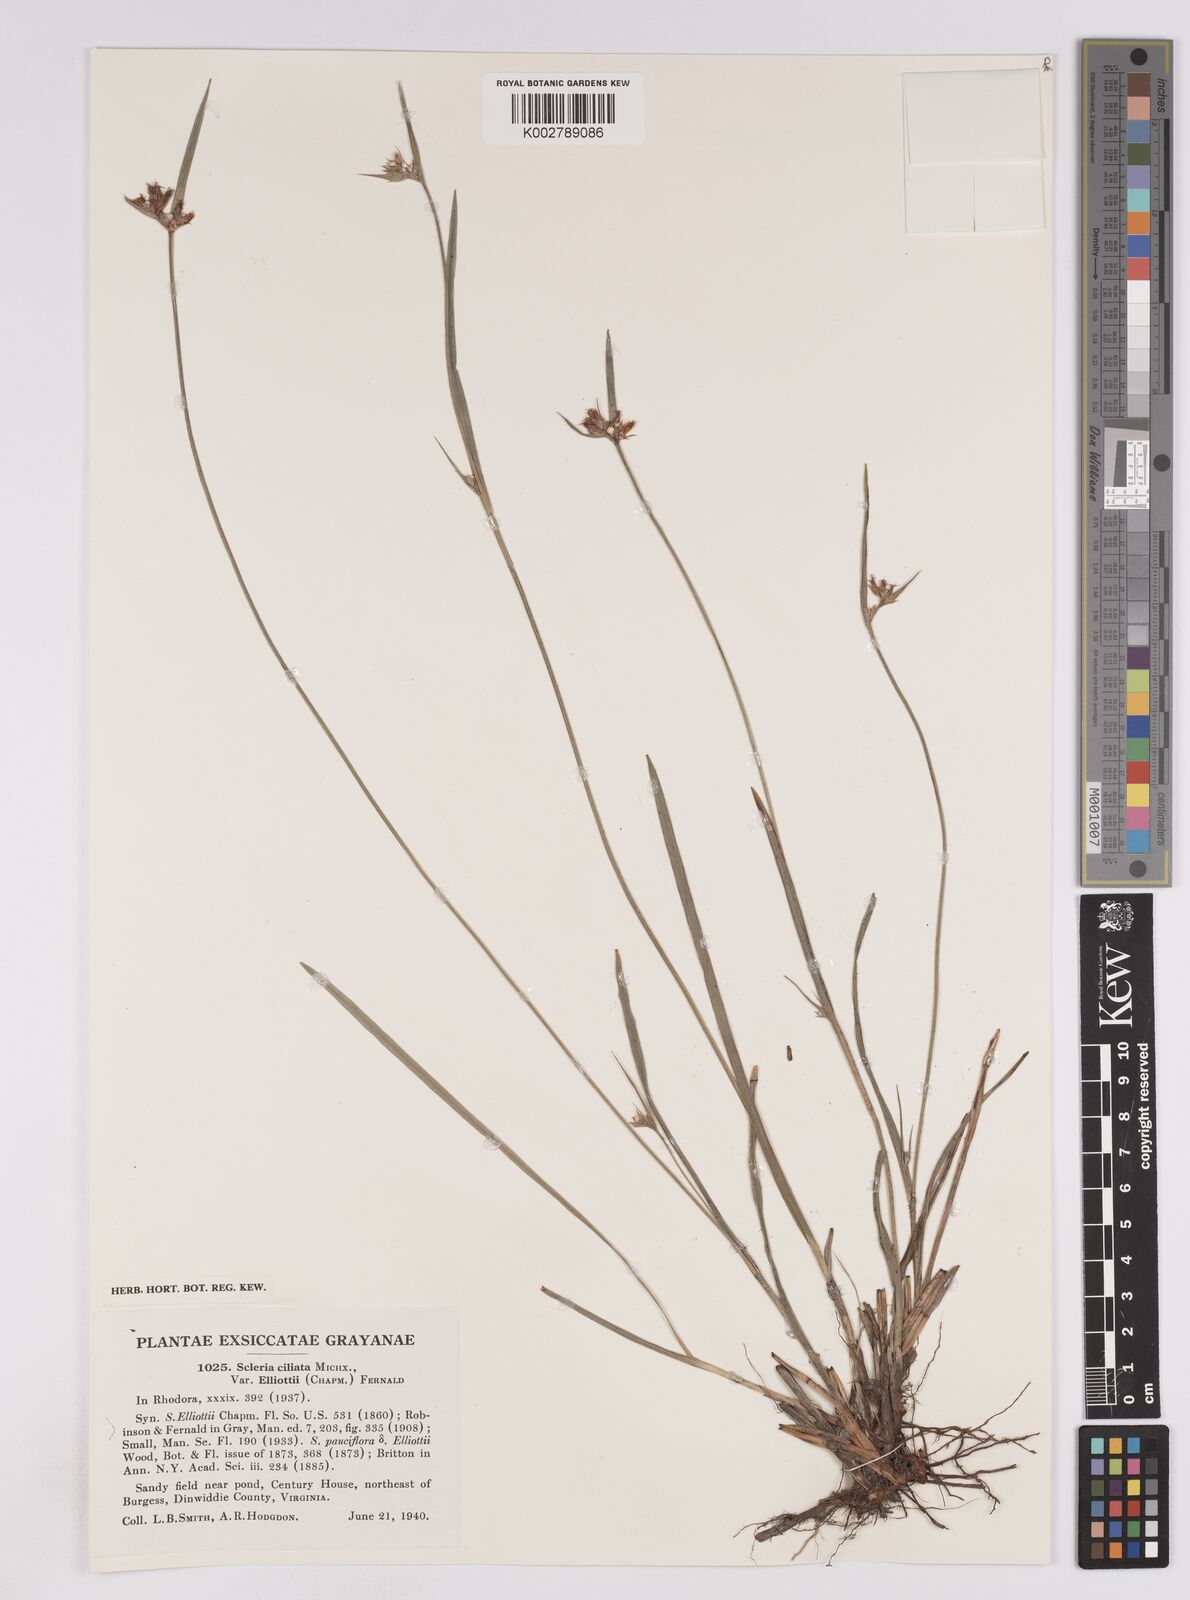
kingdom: Plantae
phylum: Tracheophyta
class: Liliopsida
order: Poales
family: Cyperaceae
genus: Scleria
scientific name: Scleria ciliata
